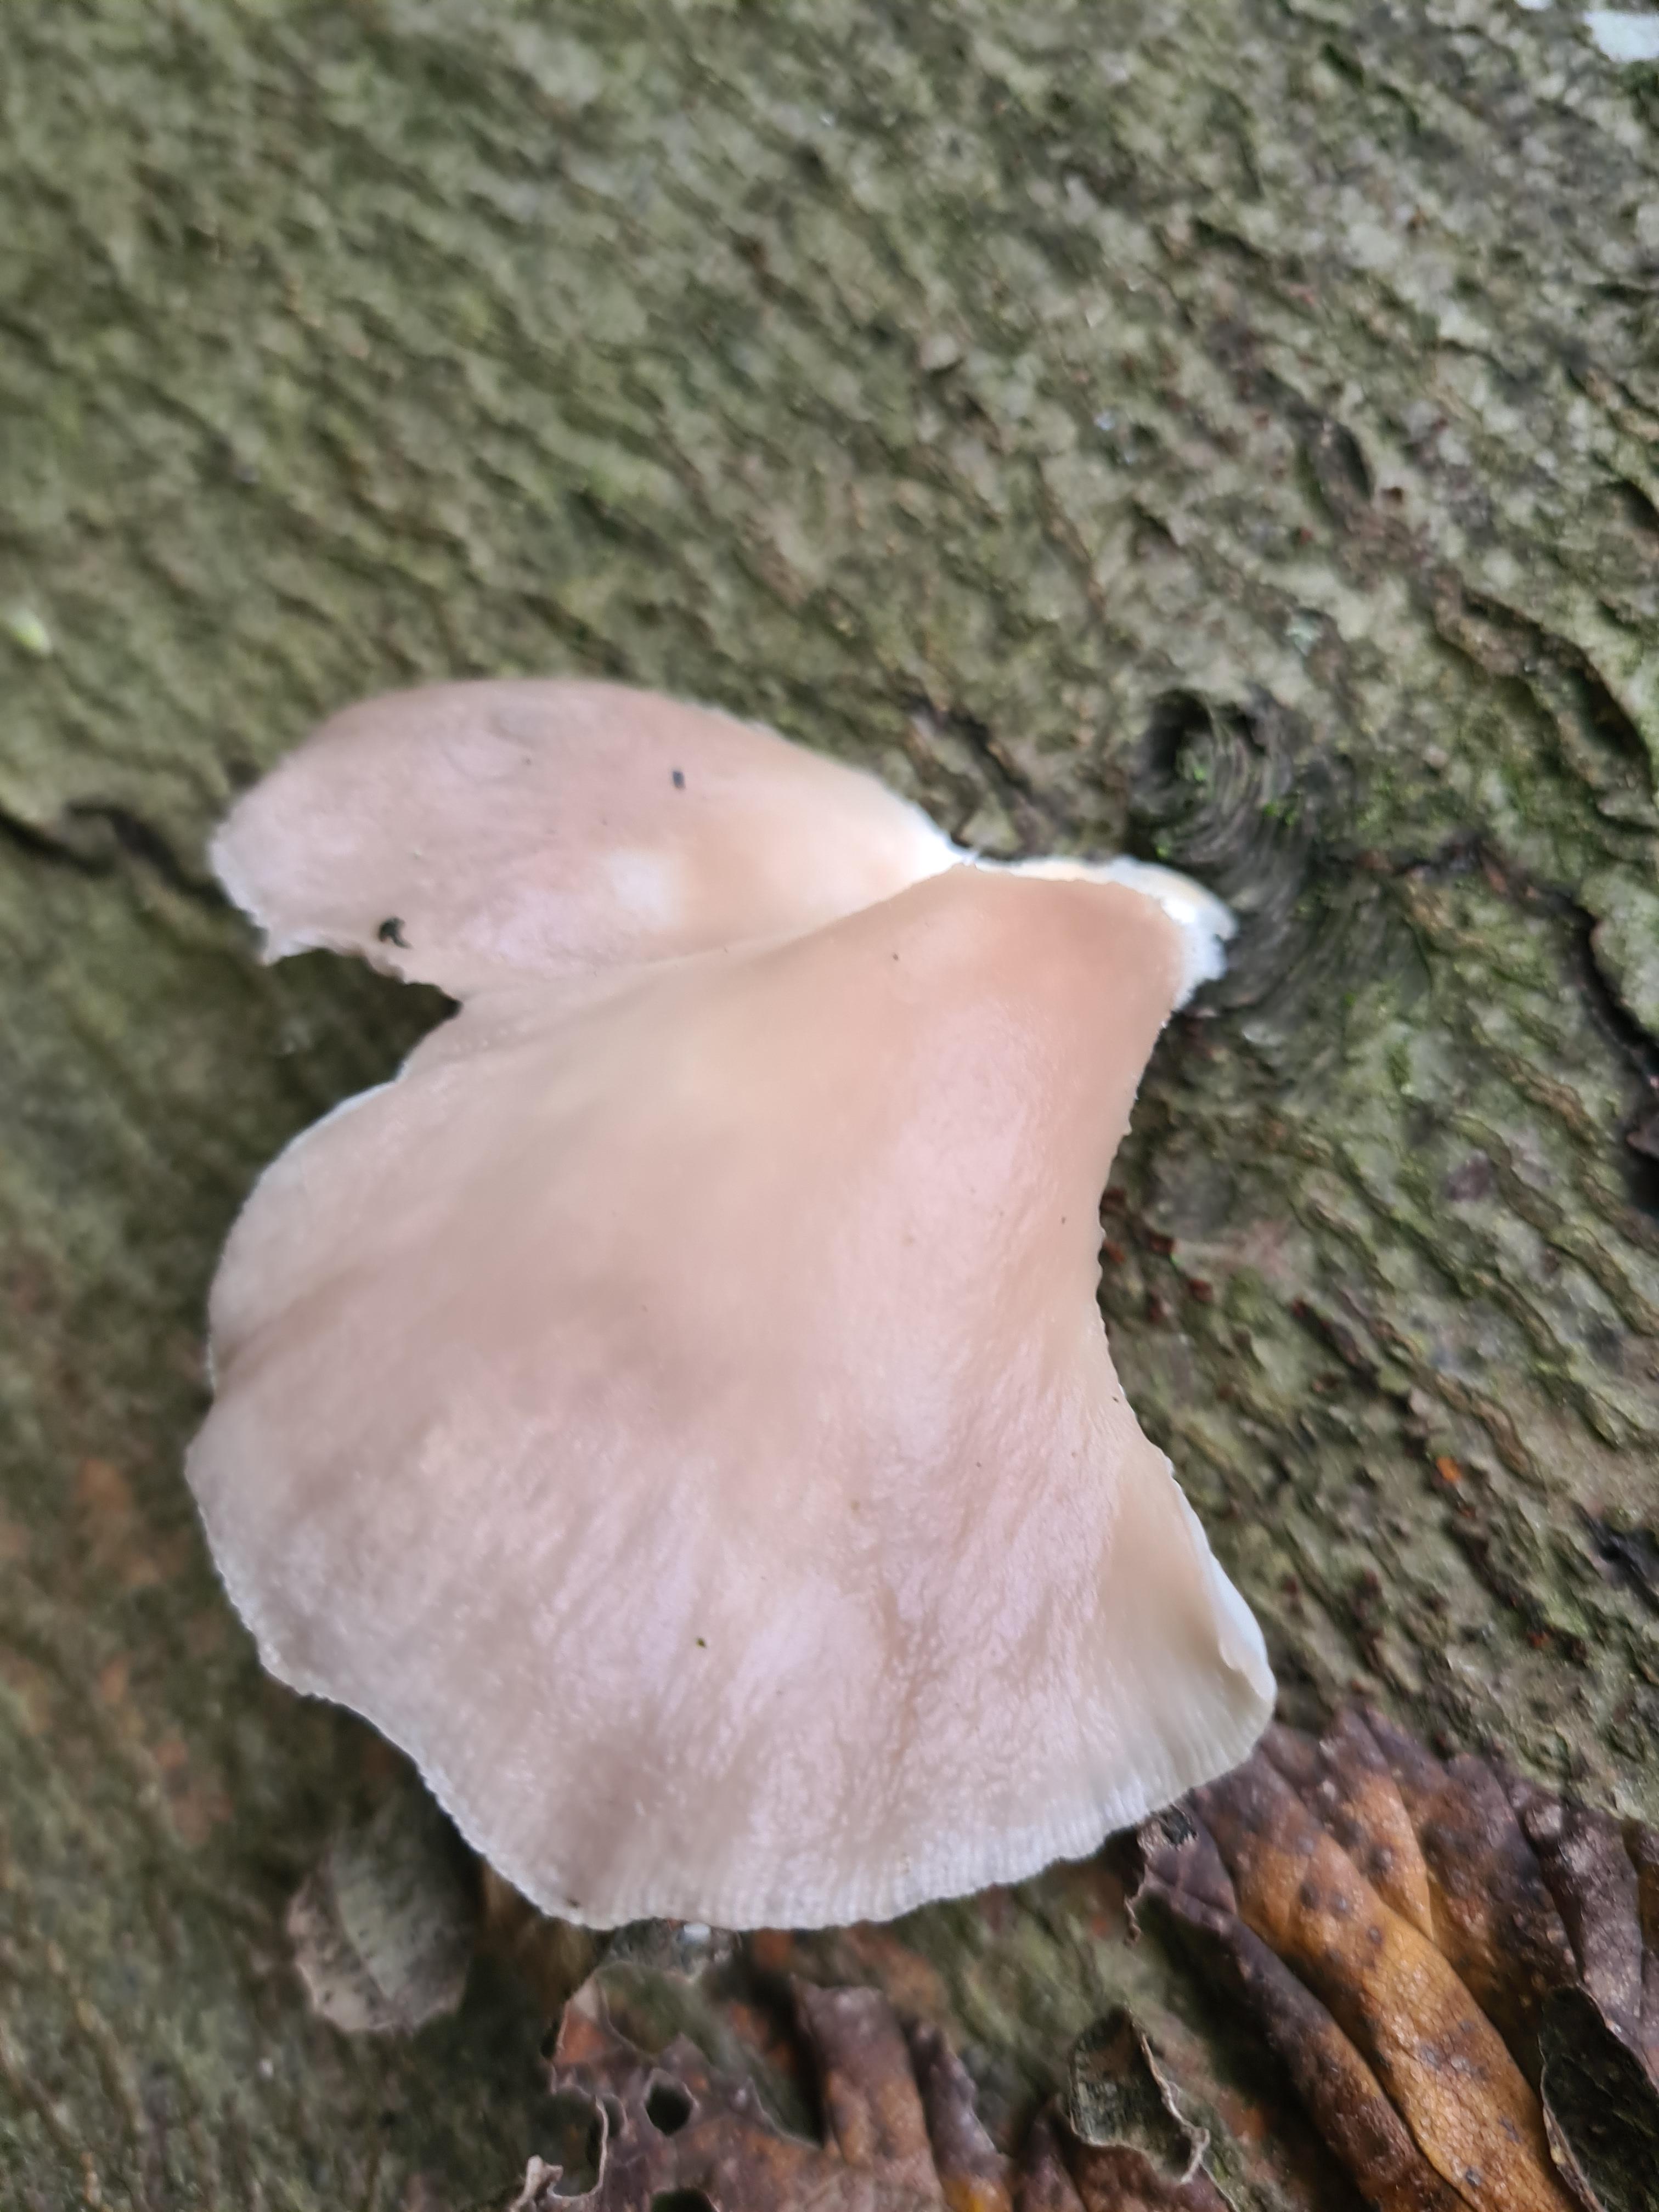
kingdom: Fungi
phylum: Basidiomycota
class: Agaricomycetes
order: Agaricales
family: Pleurotaceae
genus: Pleurotus
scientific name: Pleurotus pulmonarius
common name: sommer-østershat
